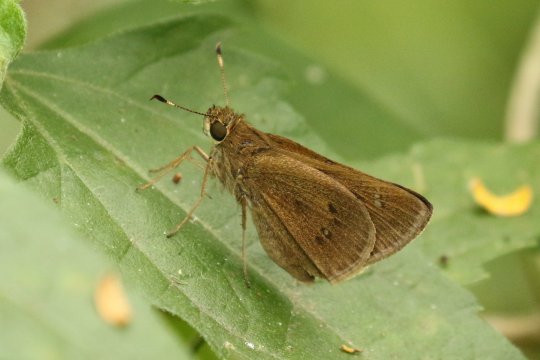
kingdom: Animalia
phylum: Arthropoda
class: Insecta
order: Lepidoptera
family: Hesperiidae
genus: Decinea
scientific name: Decinea percosius
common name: Double-dotted Skipper
